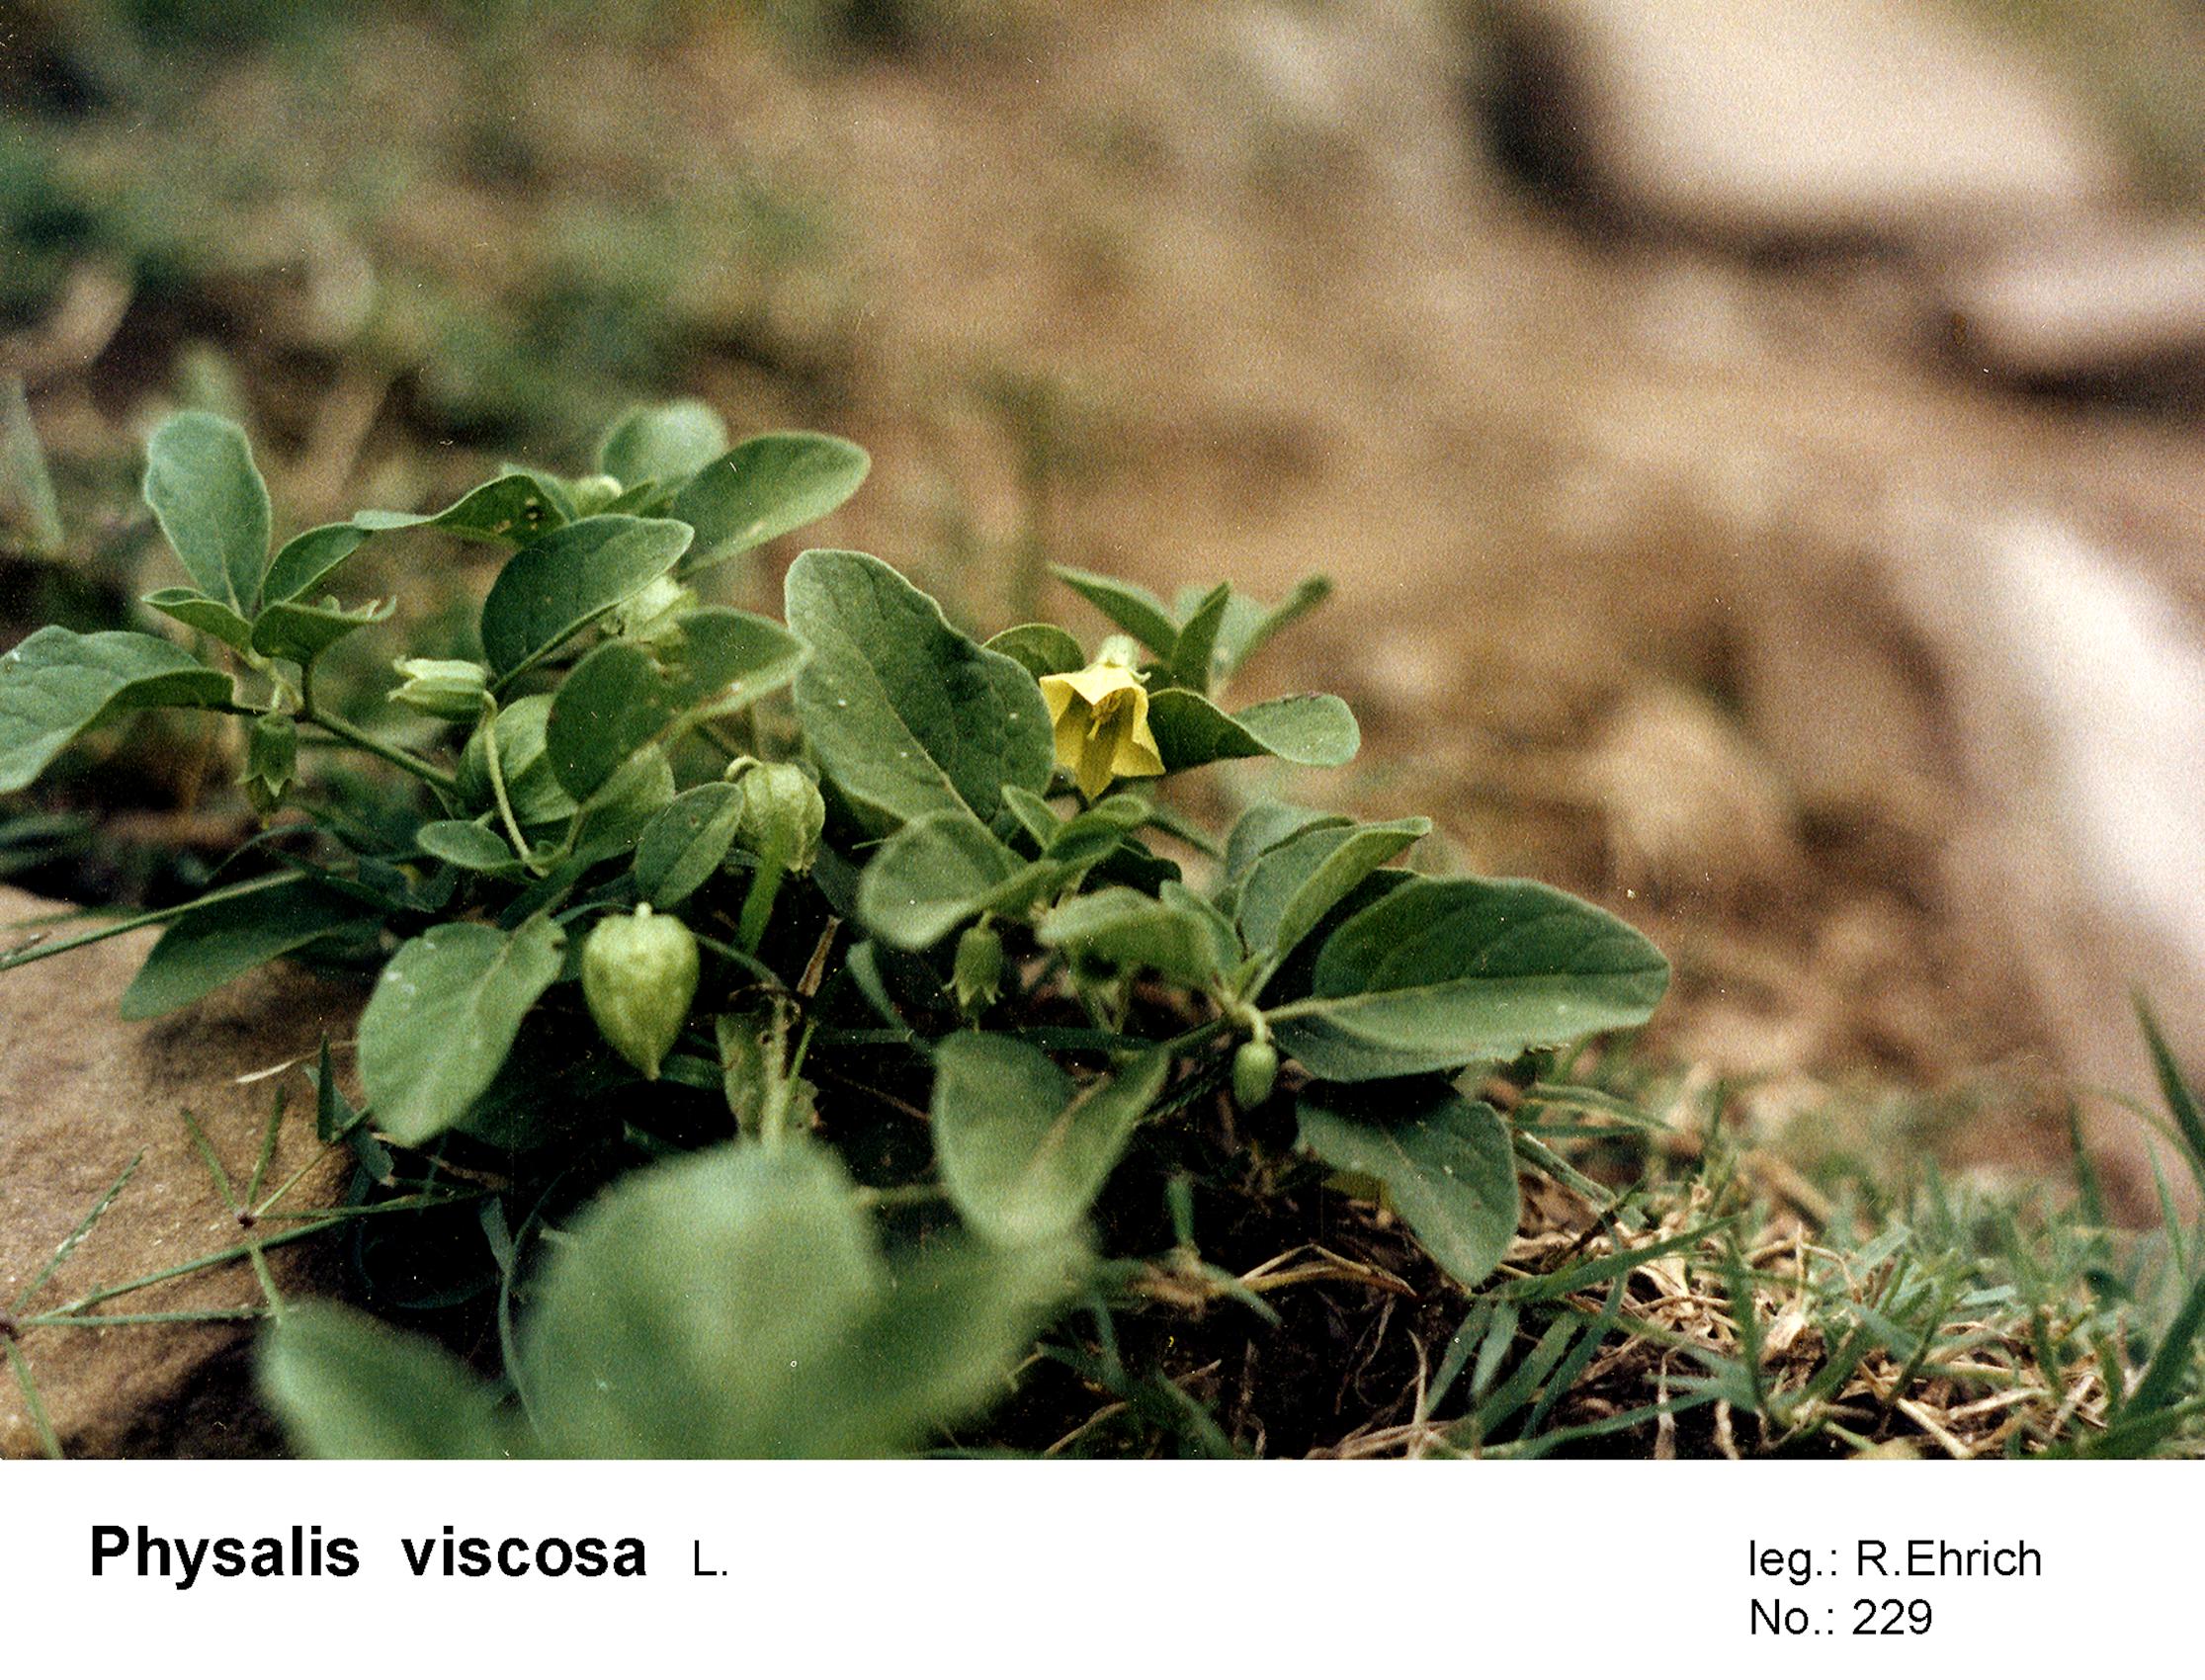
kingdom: Plantae
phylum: Tracheophyta
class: Magnoliopsida
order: Solanales
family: Solanaceae
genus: Physalis
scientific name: Physalis viscosa
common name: Stellate ground-cherry
